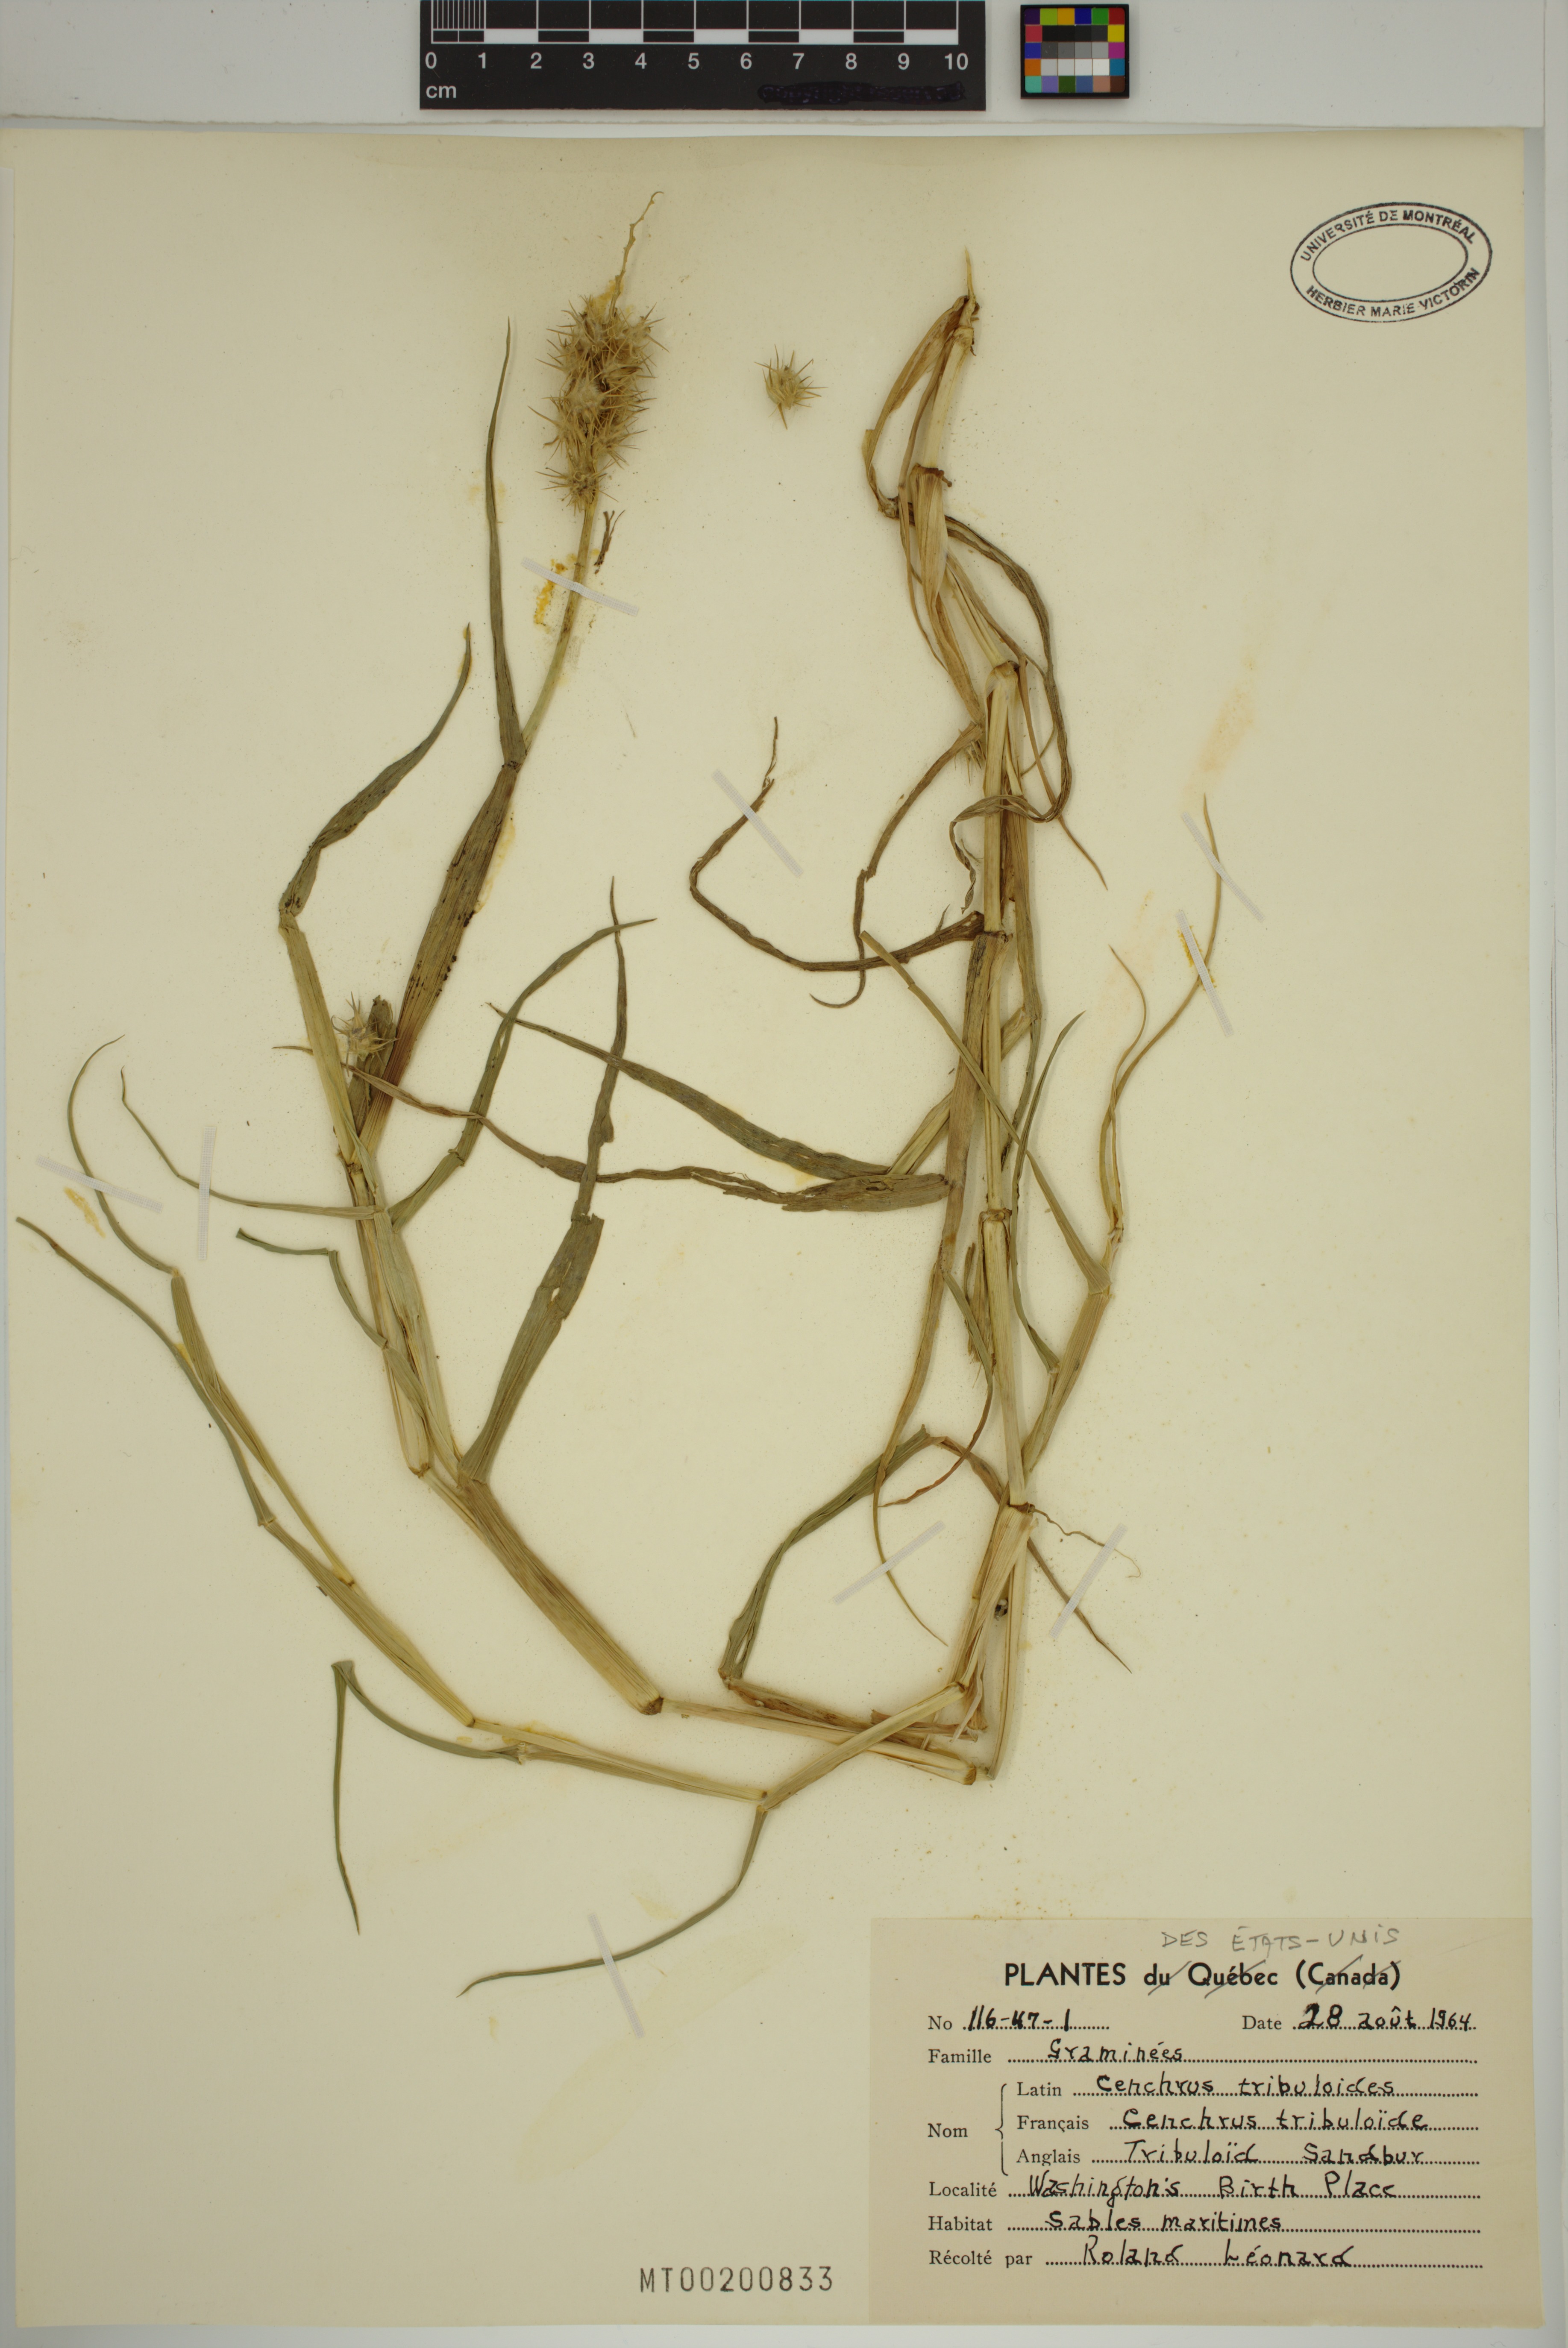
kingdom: Plantae
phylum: Tracheophyta
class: Liliopsida
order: Poales
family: Poaceae
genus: Cenchrus
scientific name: Cenchrus tribuloides
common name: Dune sandbur
